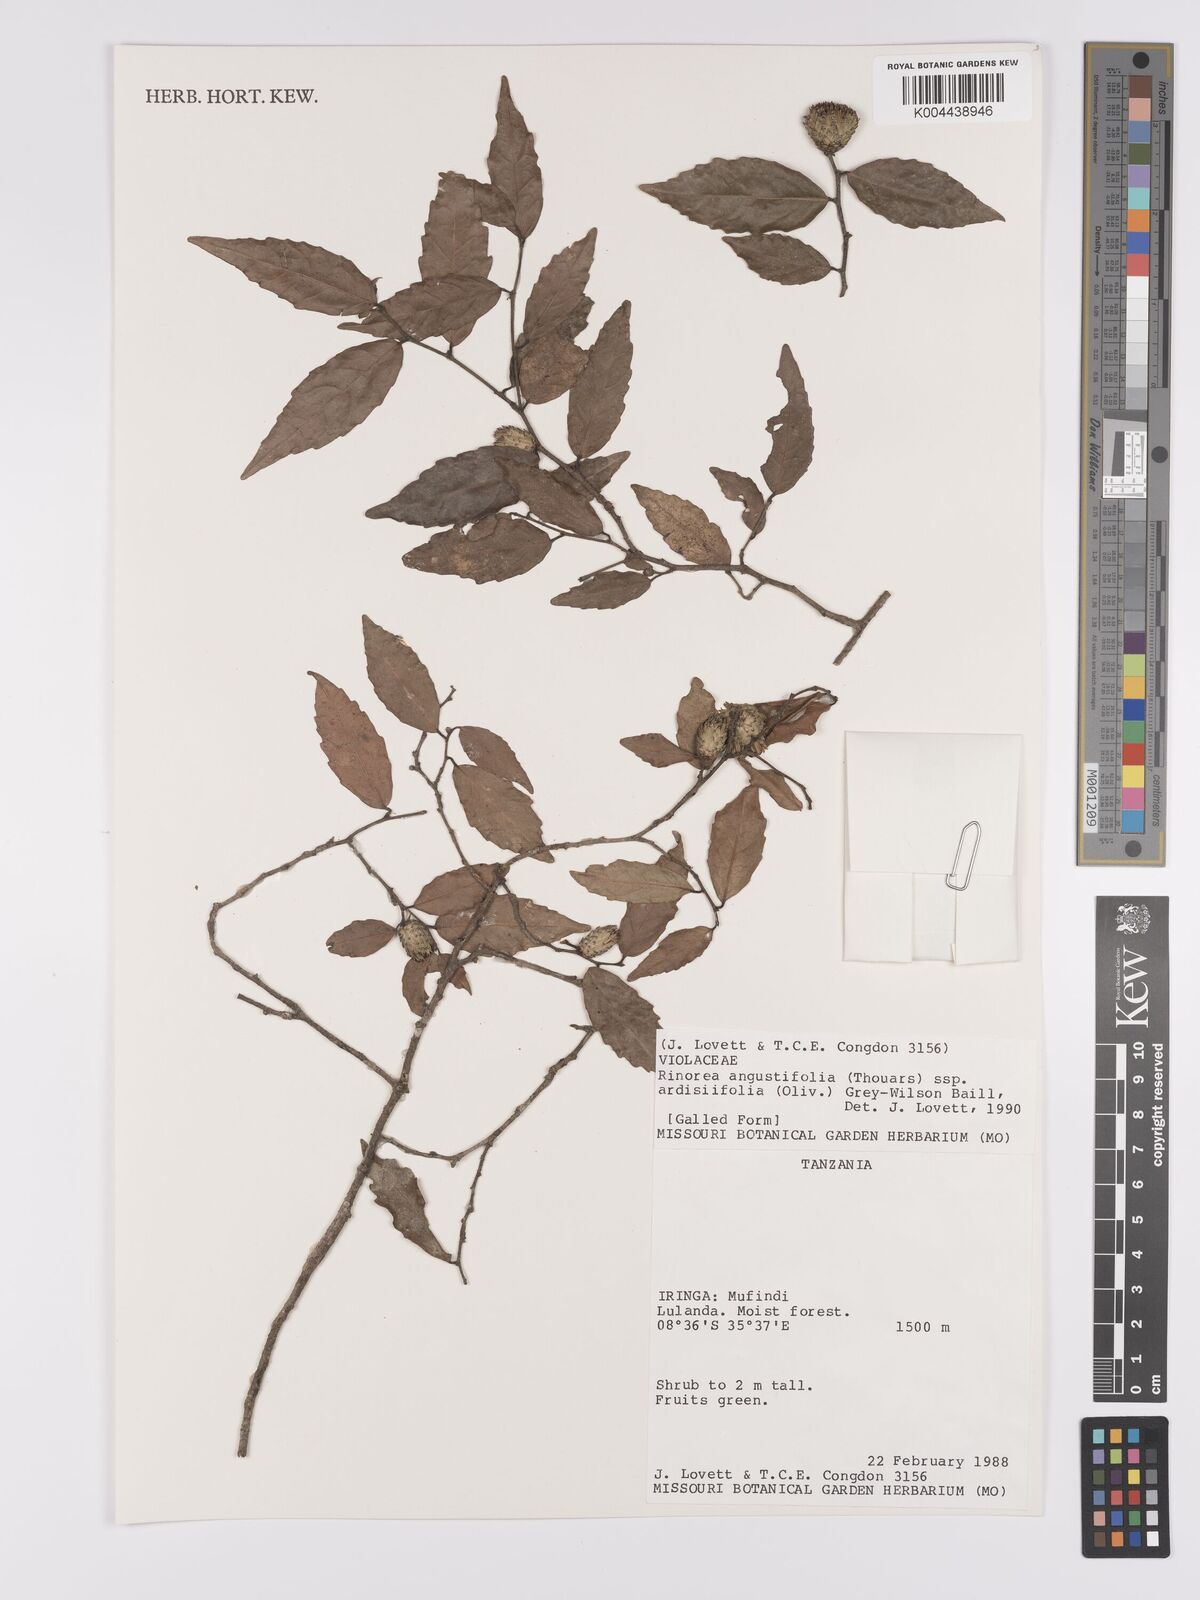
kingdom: Plantae
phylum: Tracheophyta
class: Magnoliopsida
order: Malpighiales
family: Violaceae
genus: Rinorea
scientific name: Rinorea angustifolia
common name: White violet-bush
